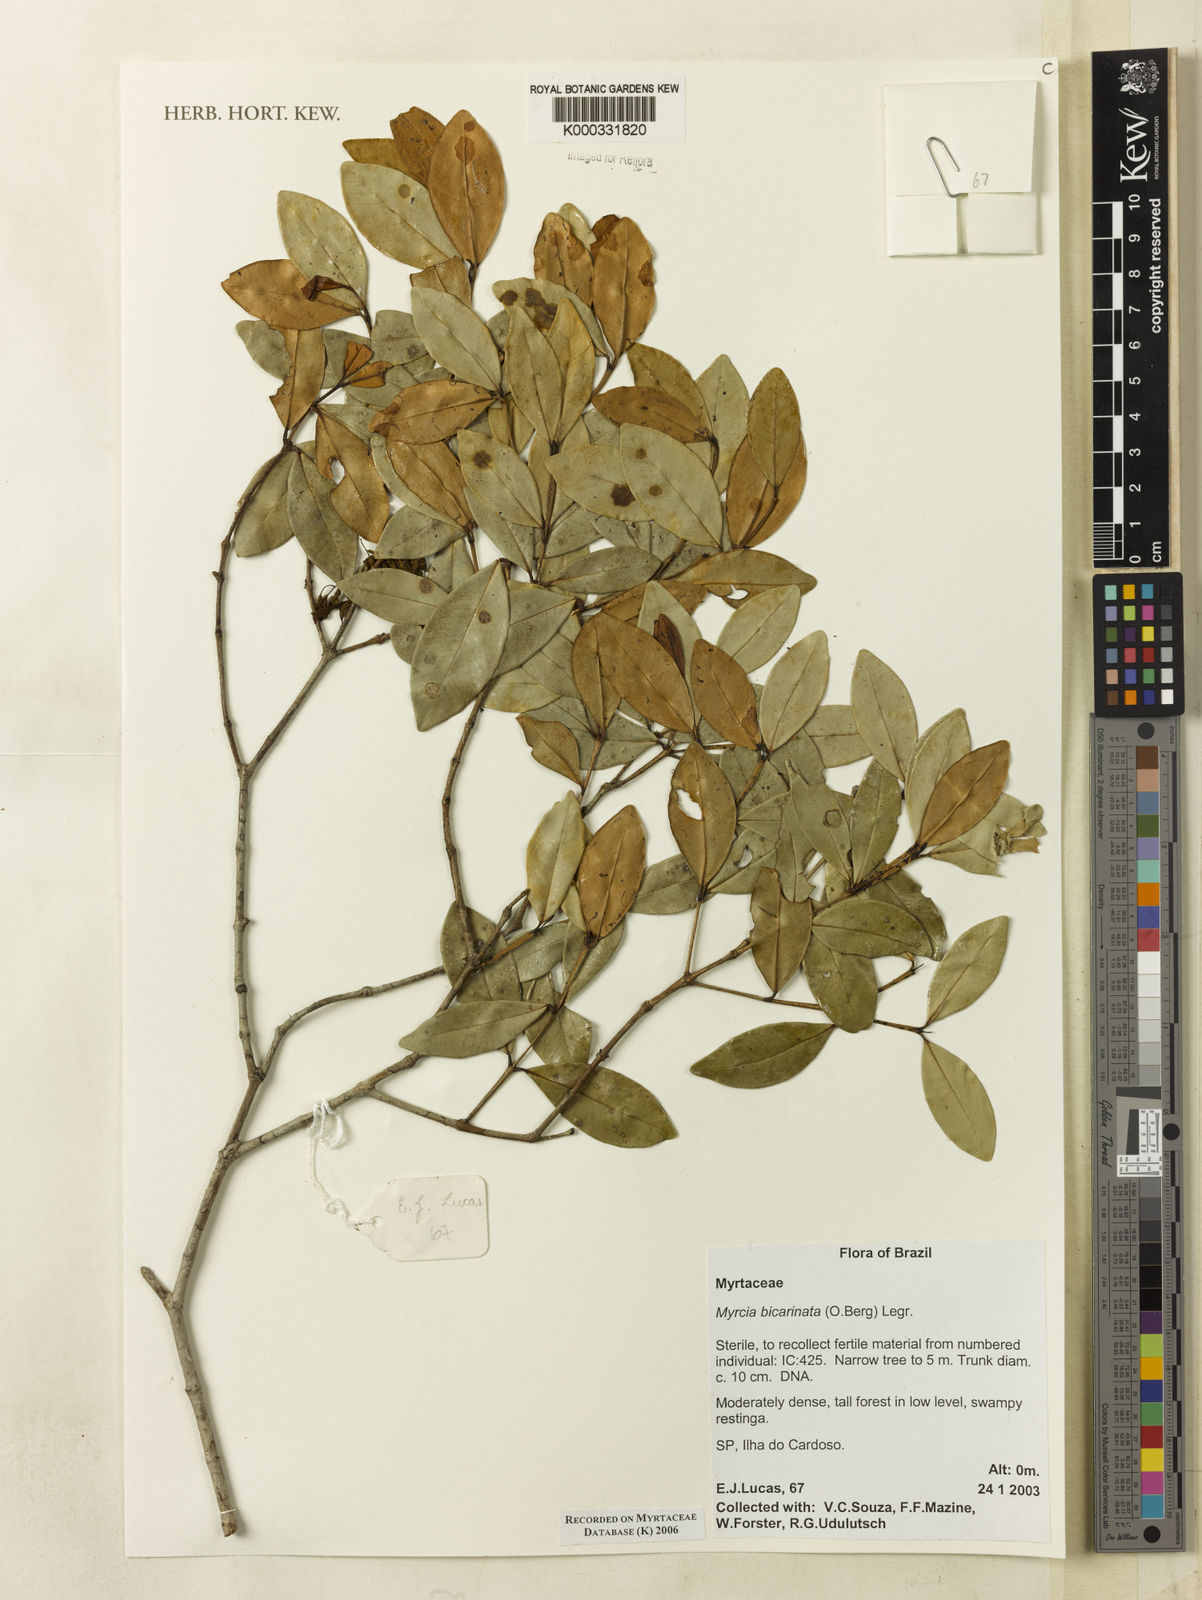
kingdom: Plantae
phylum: Tracheophyta
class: Magnoliopsida
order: Myrtales
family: Myrtaceae
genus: Myrcia
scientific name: Myrcia bicarinata
